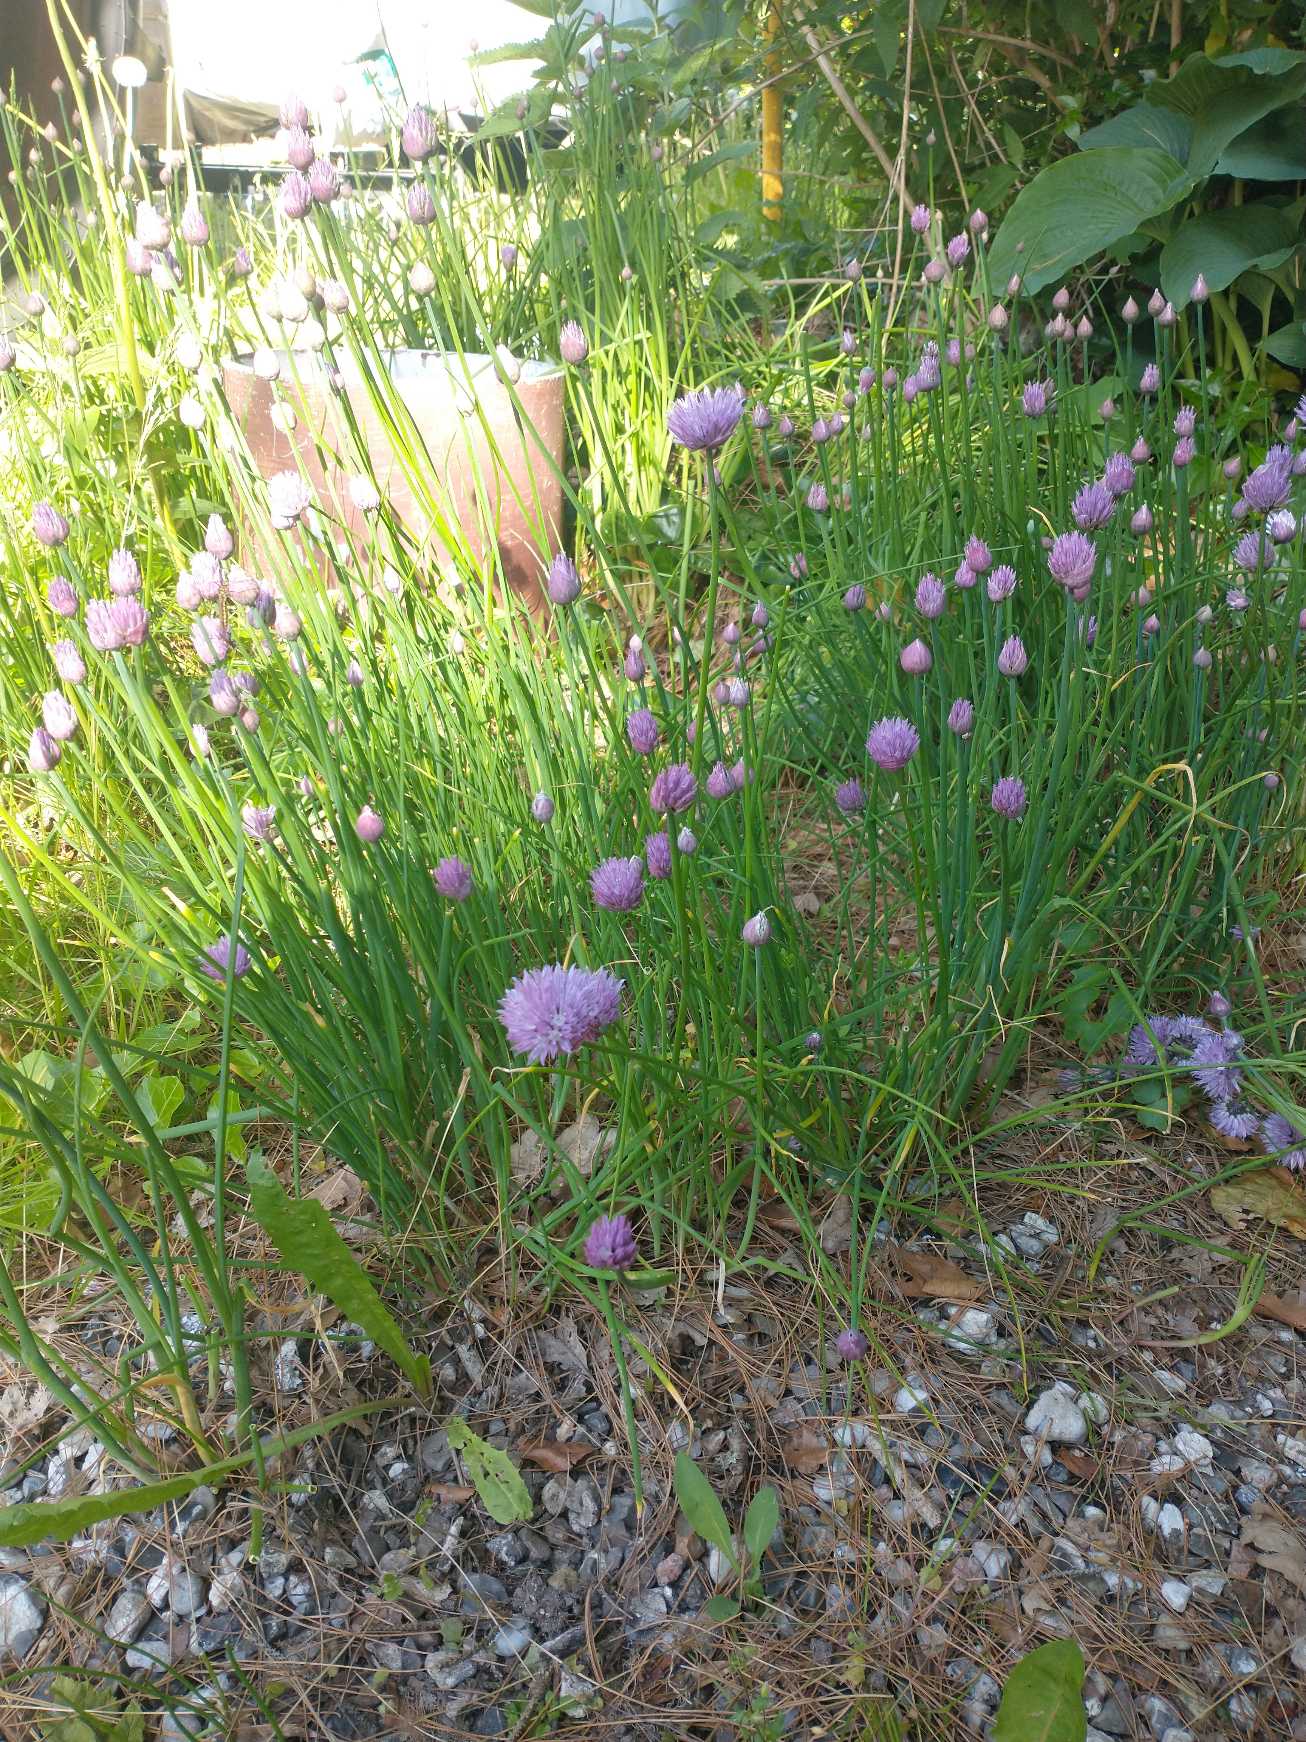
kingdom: Plantae
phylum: Tracheophyta
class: Liliopsida
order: Asparagales
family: Amaryllidaceae
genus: Allium
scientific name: Allium schoenoprasum
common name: Pur-løg
